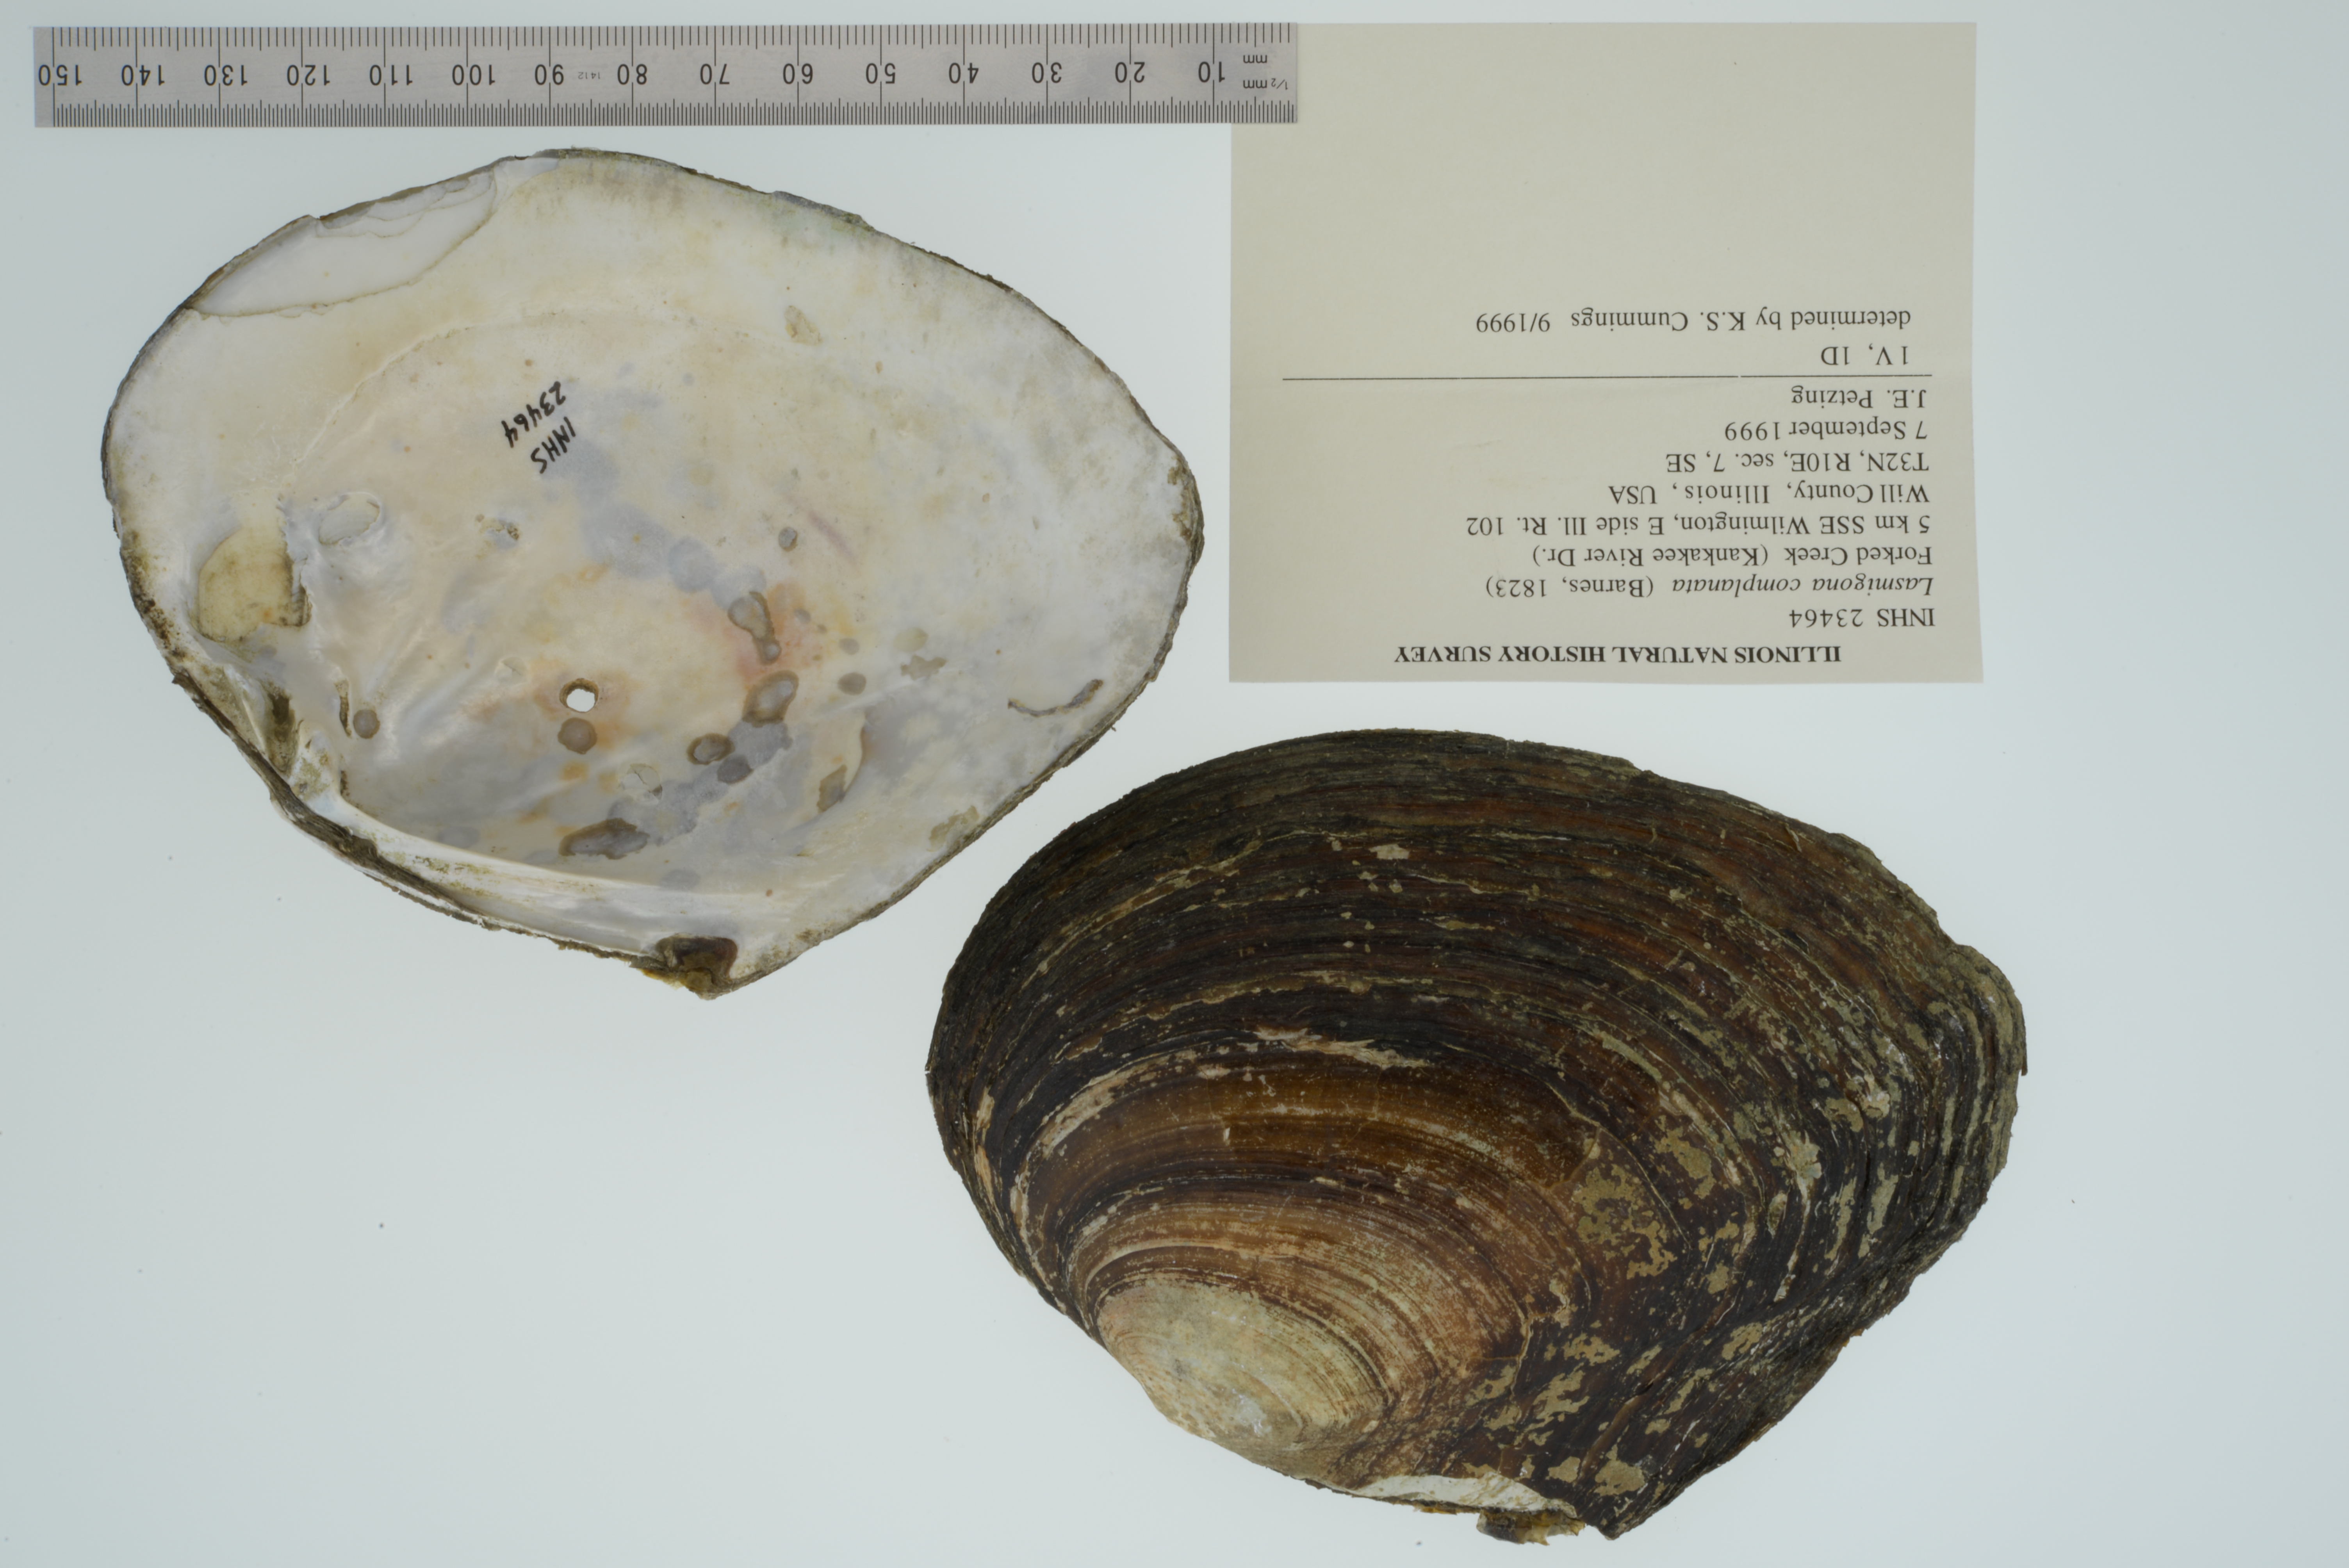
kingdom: Animalia
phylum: Mollusca
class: Bivalvia
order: Unionida
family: Unionidae
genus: Lasmigona
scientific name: Lasmigona complanata
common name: White heelsplitter
